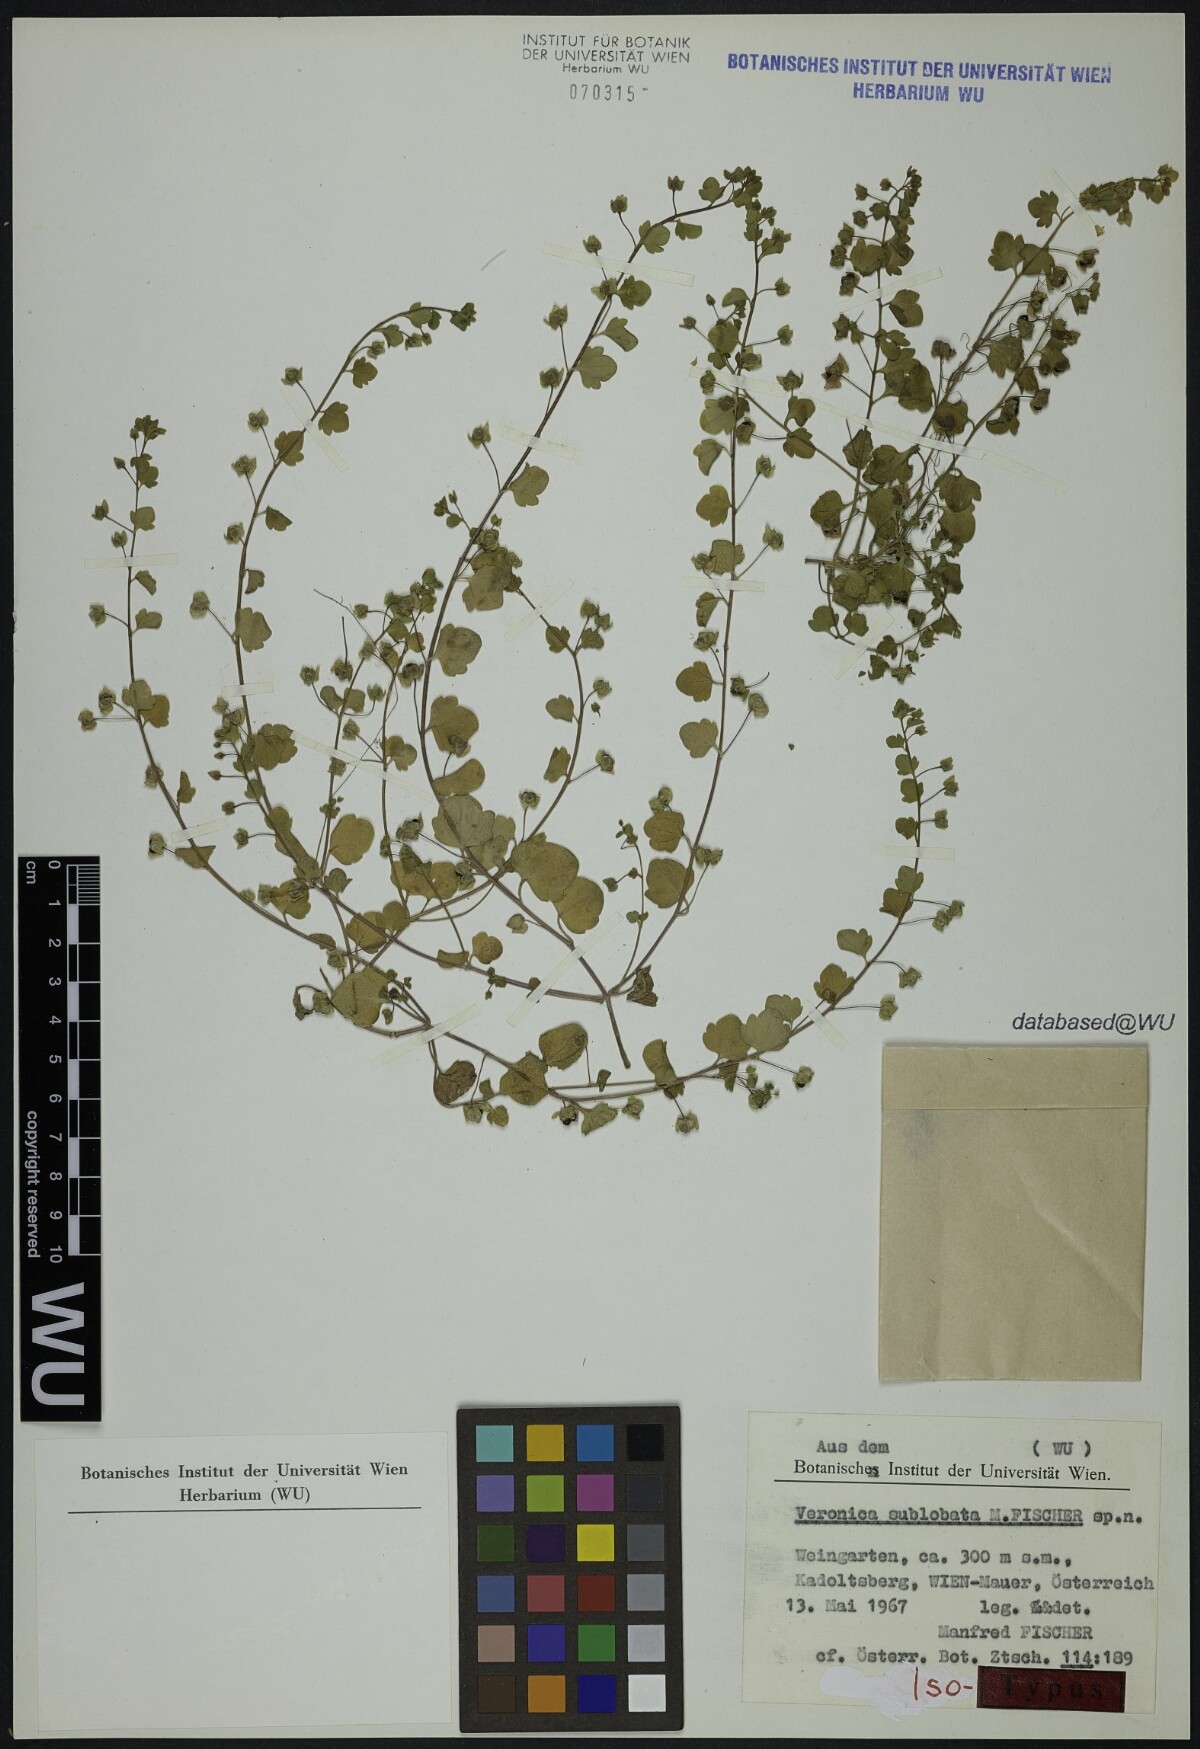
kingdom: Plantae
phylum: Tracheophyta
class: Magnoliopsida
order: Lamiales
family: Plantaginaceae
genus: Veronica
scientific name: Veronica sublobata
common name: False ivy-leaved speedwell
